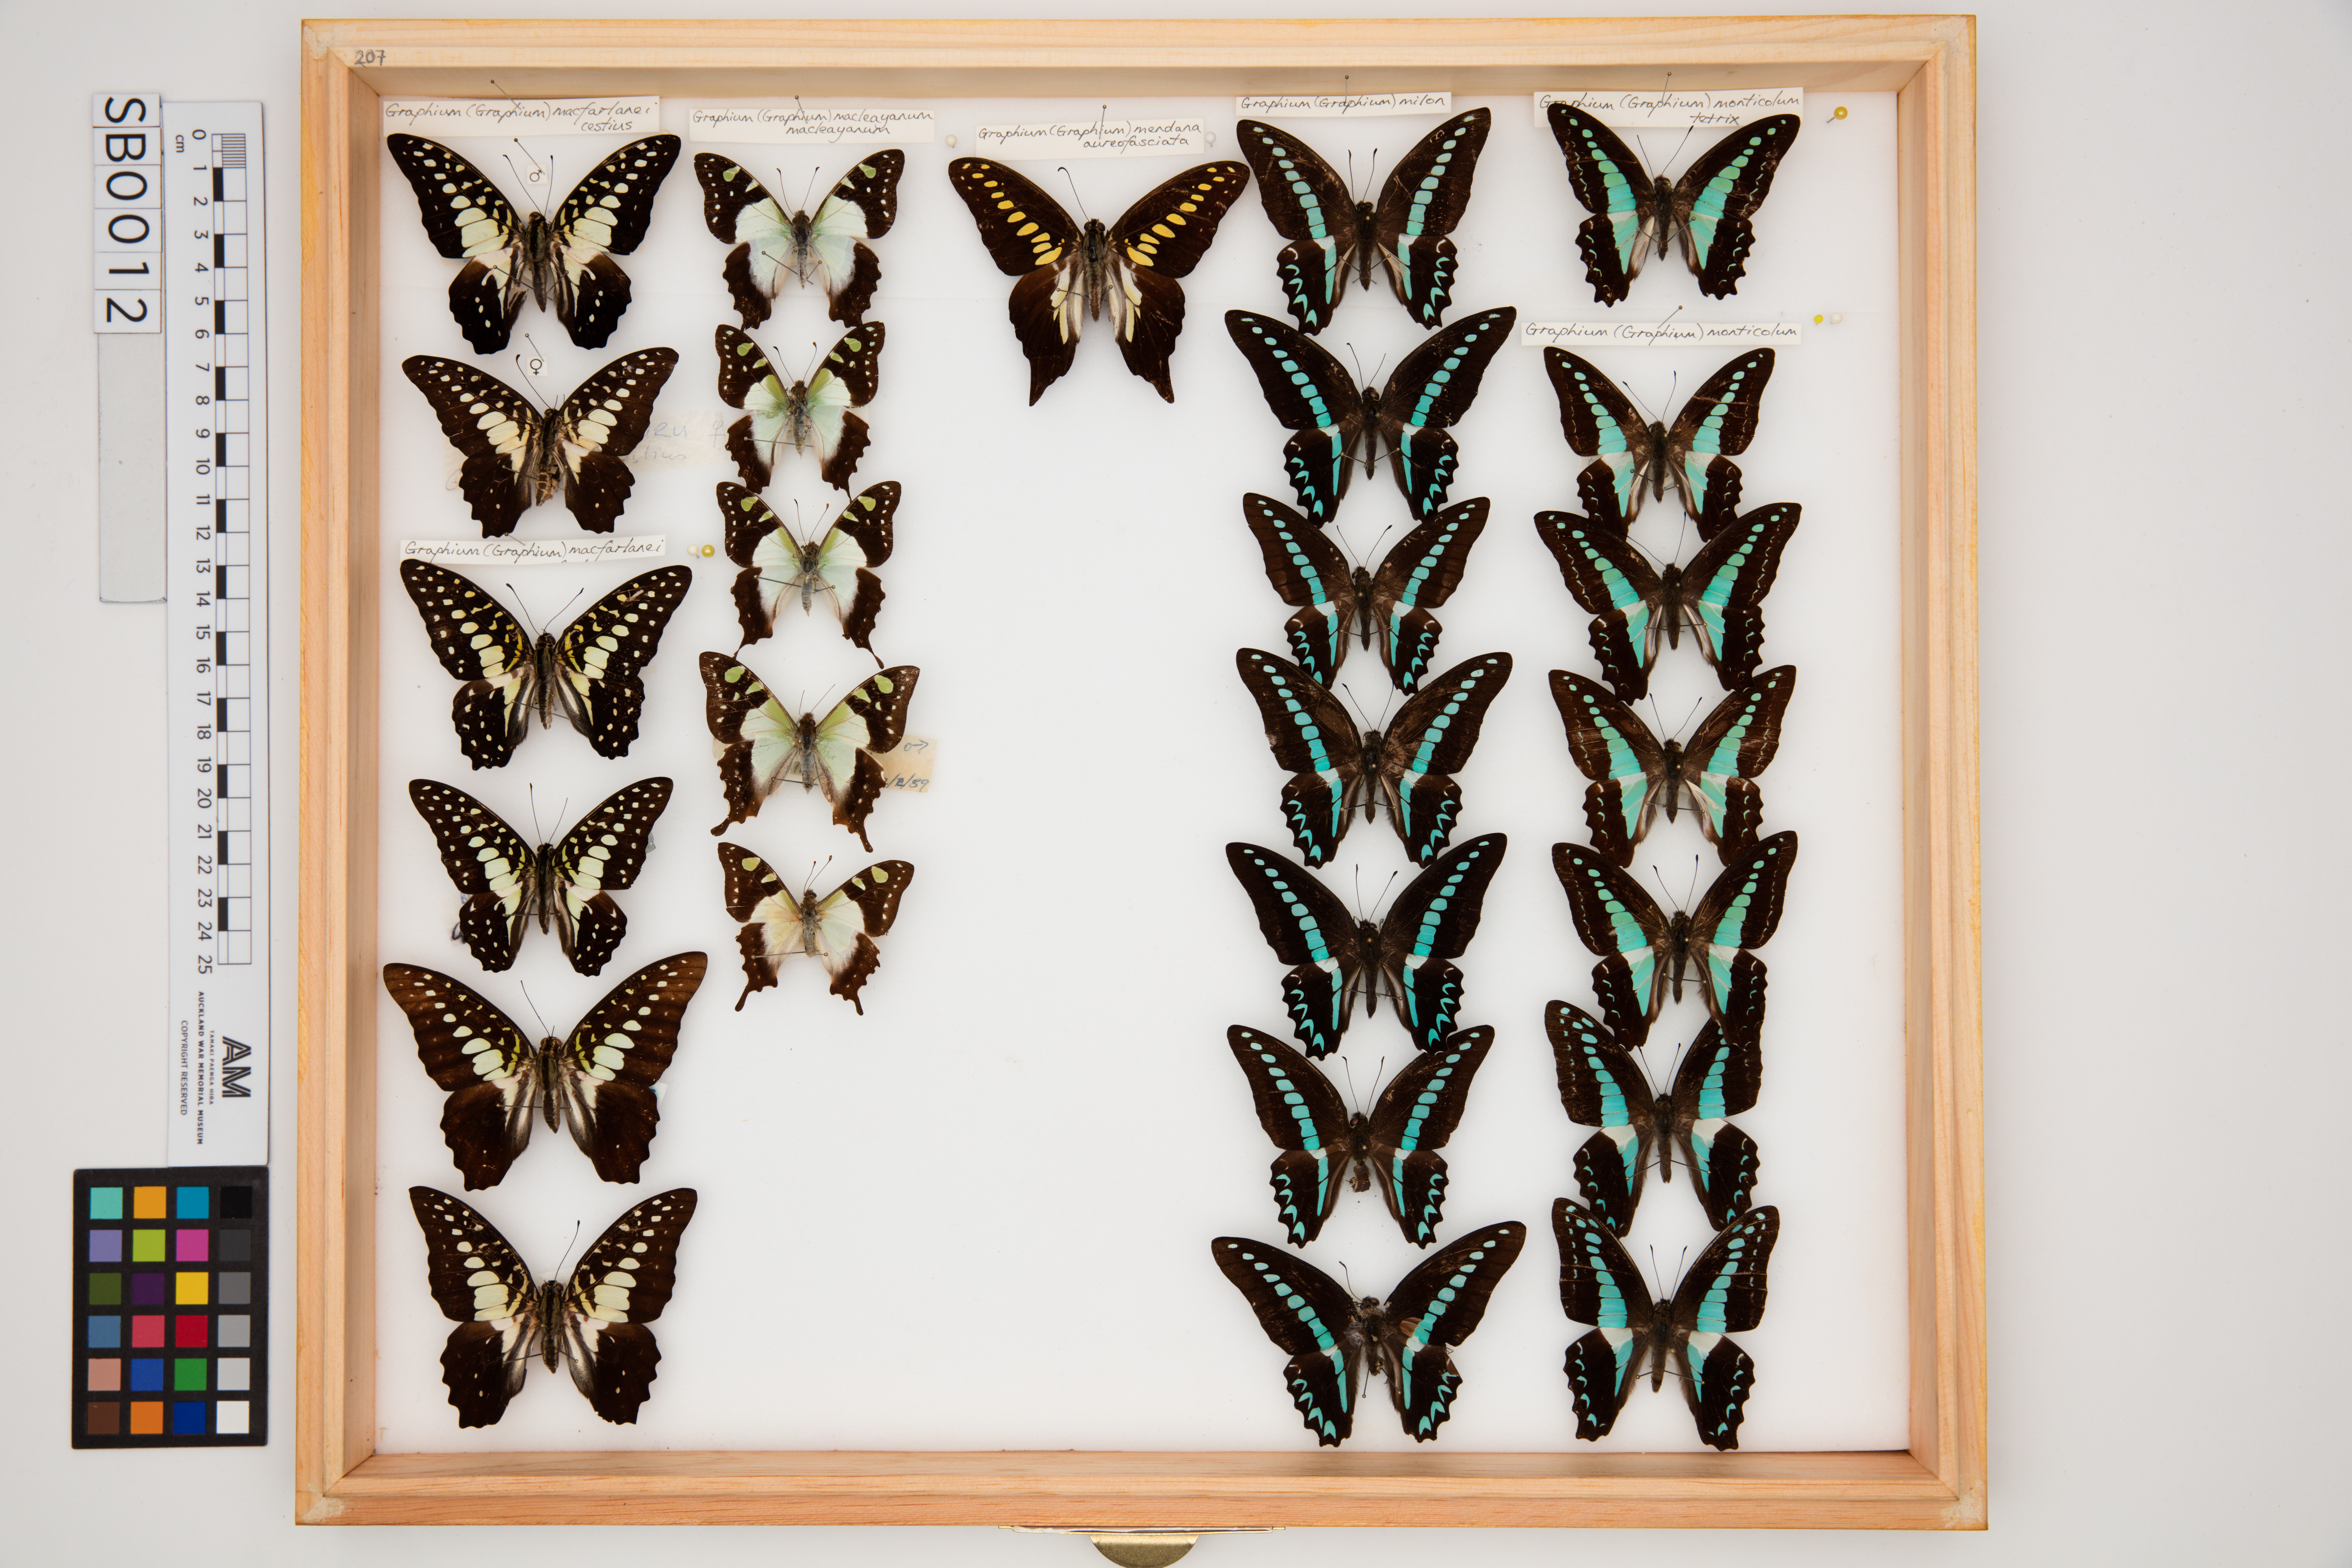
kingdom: Animalia
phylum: Arthropoda
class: Insecta
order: Lepidoptera
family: Papilionidae
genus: Graphium
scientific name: Graphium monticolus
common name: Sulawesi blue triangle
